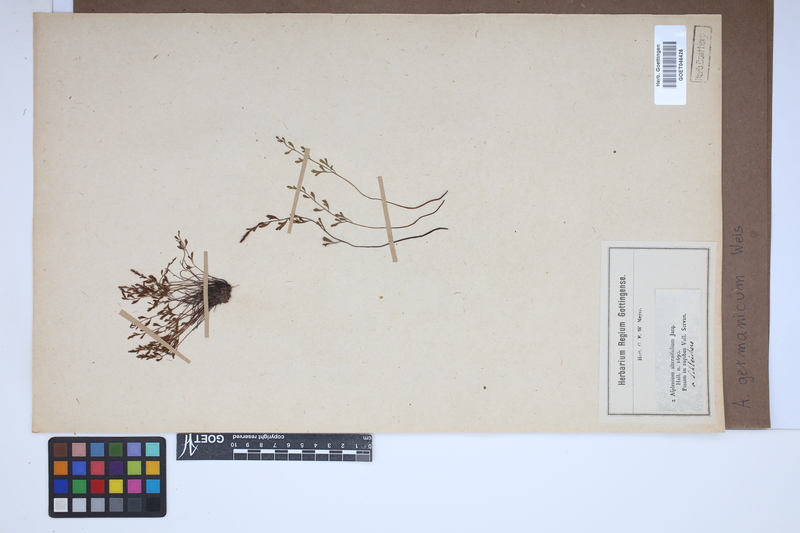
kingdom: Plantae
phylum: Tracheophyta
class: Polypodiopsida
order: Polypodiales
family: Aspleniaceae
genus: Asplenium
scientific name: Asplenium
